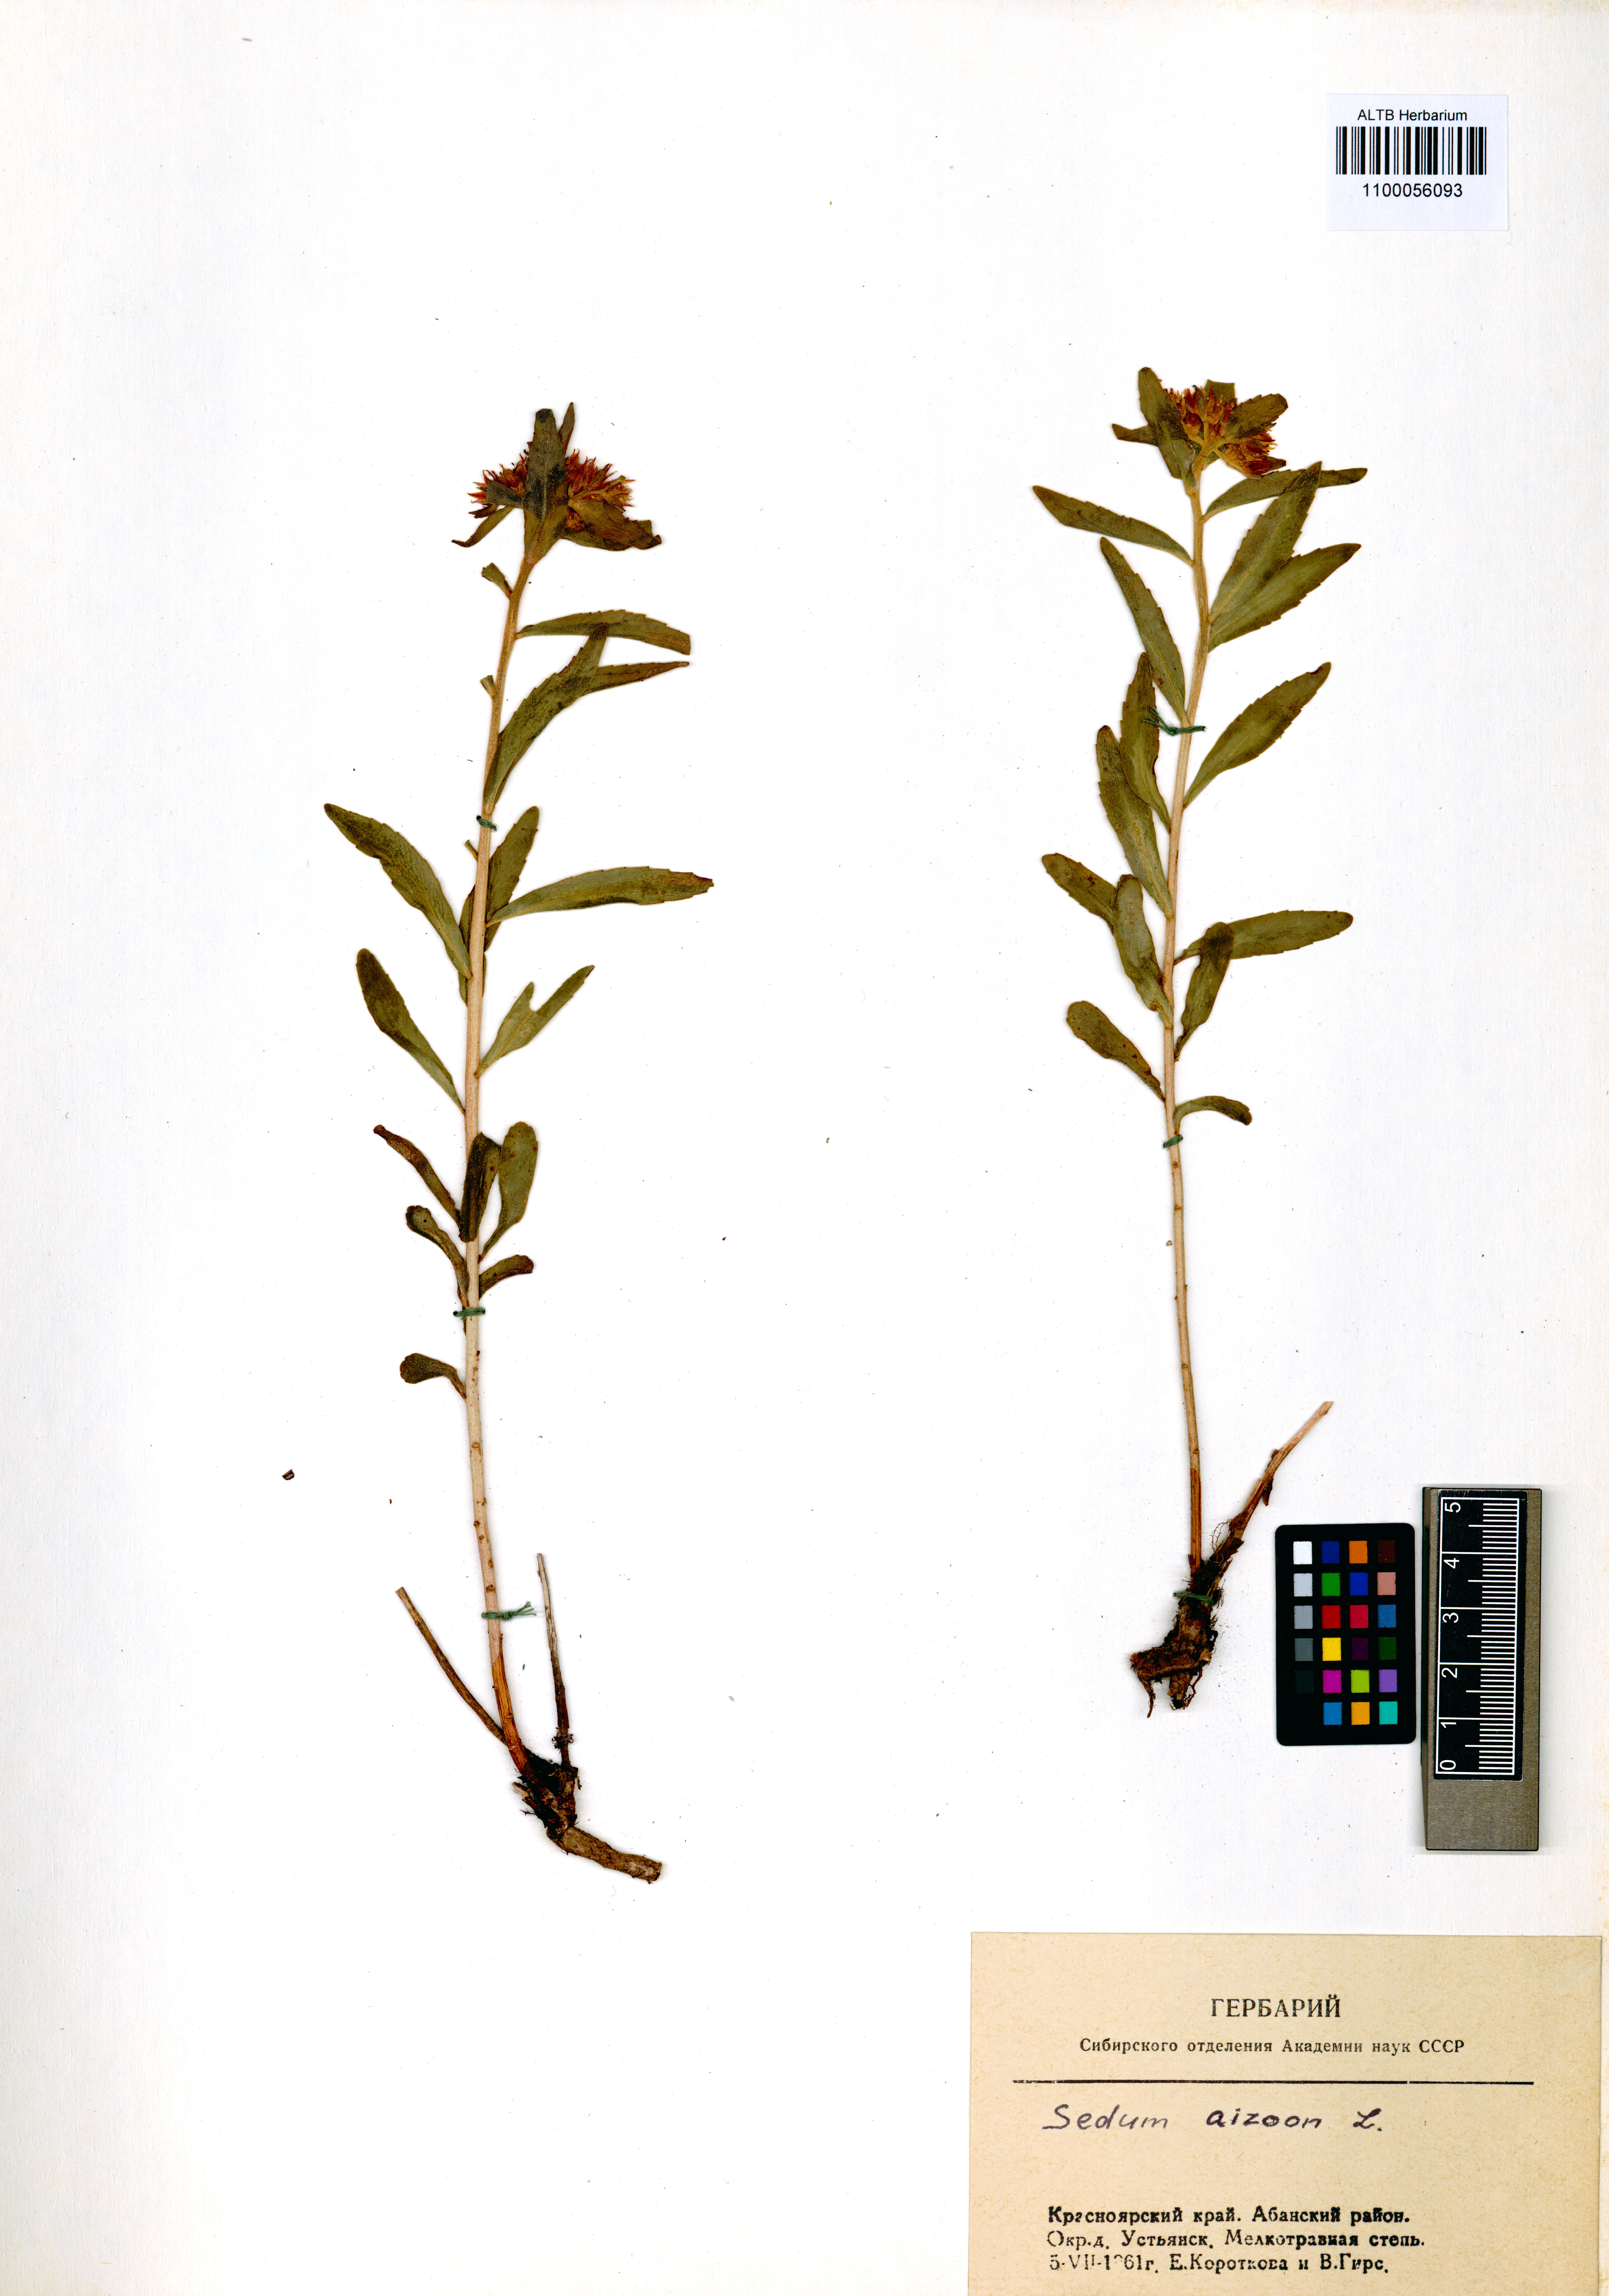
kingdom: Plantae
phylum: Tracheophyta
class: Magnoliopsida
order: Saxifragales
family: Crassulaceae
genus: Phedimus
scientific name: Phedimus aizoon
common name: Orpin aizoon
